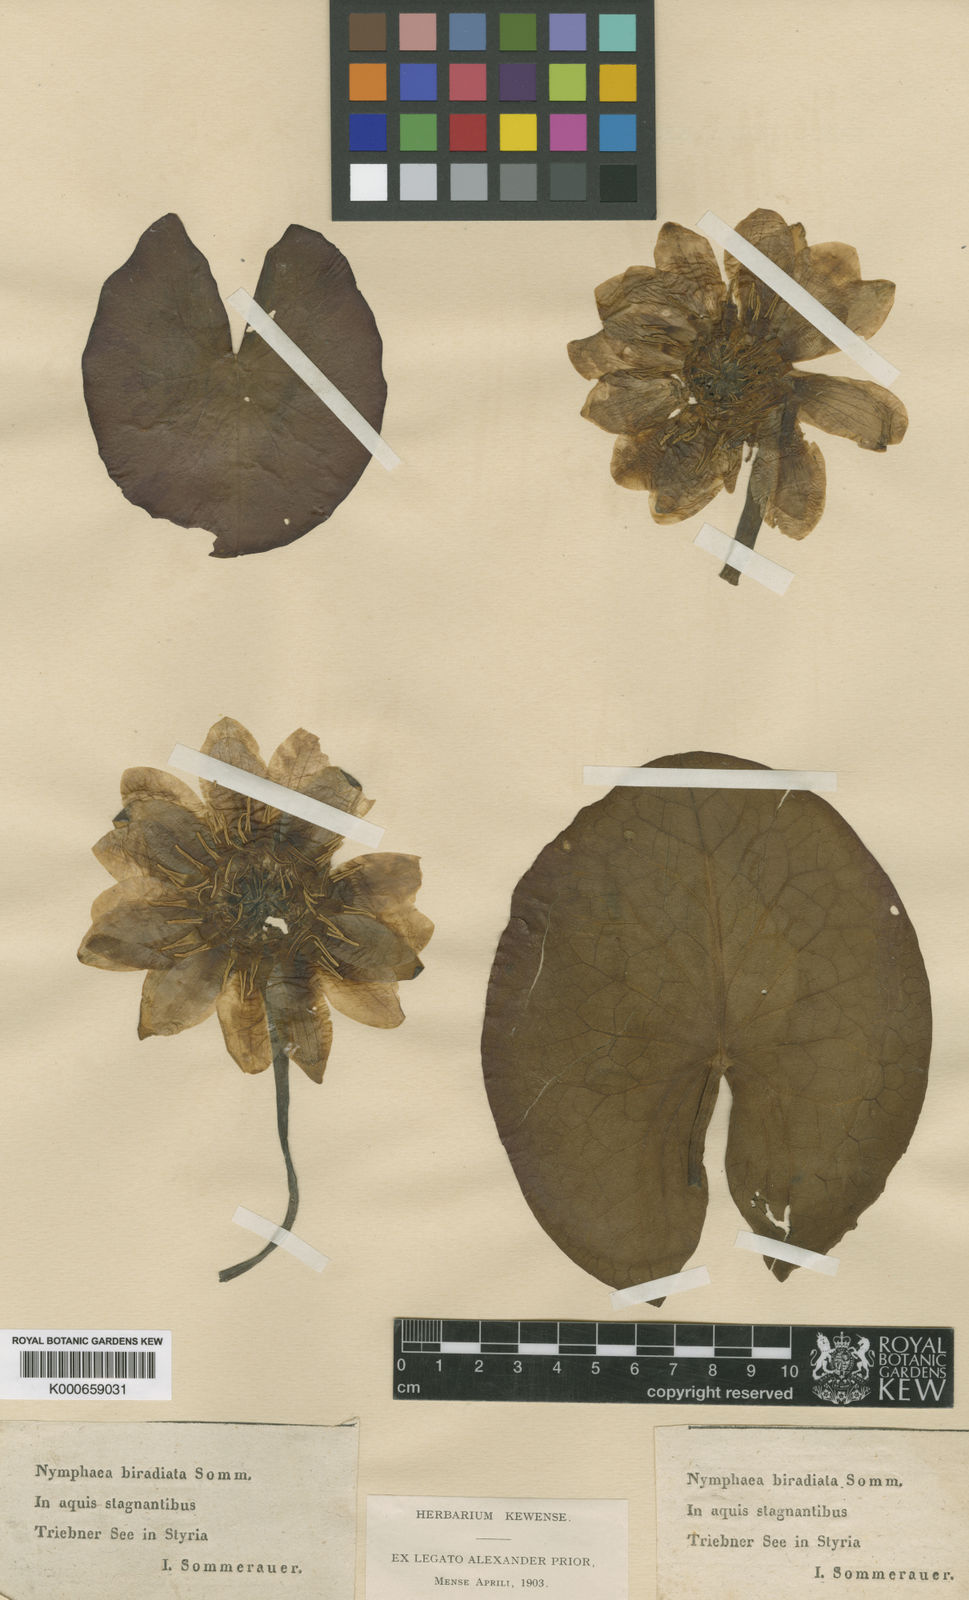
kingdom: Plantae
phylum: Tracheophyta
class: Magnoliopsida
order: Nymphaeales
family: Nymphaeaceae
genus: Nymphaea
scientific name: Nymphaea alba
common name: White water-lily
